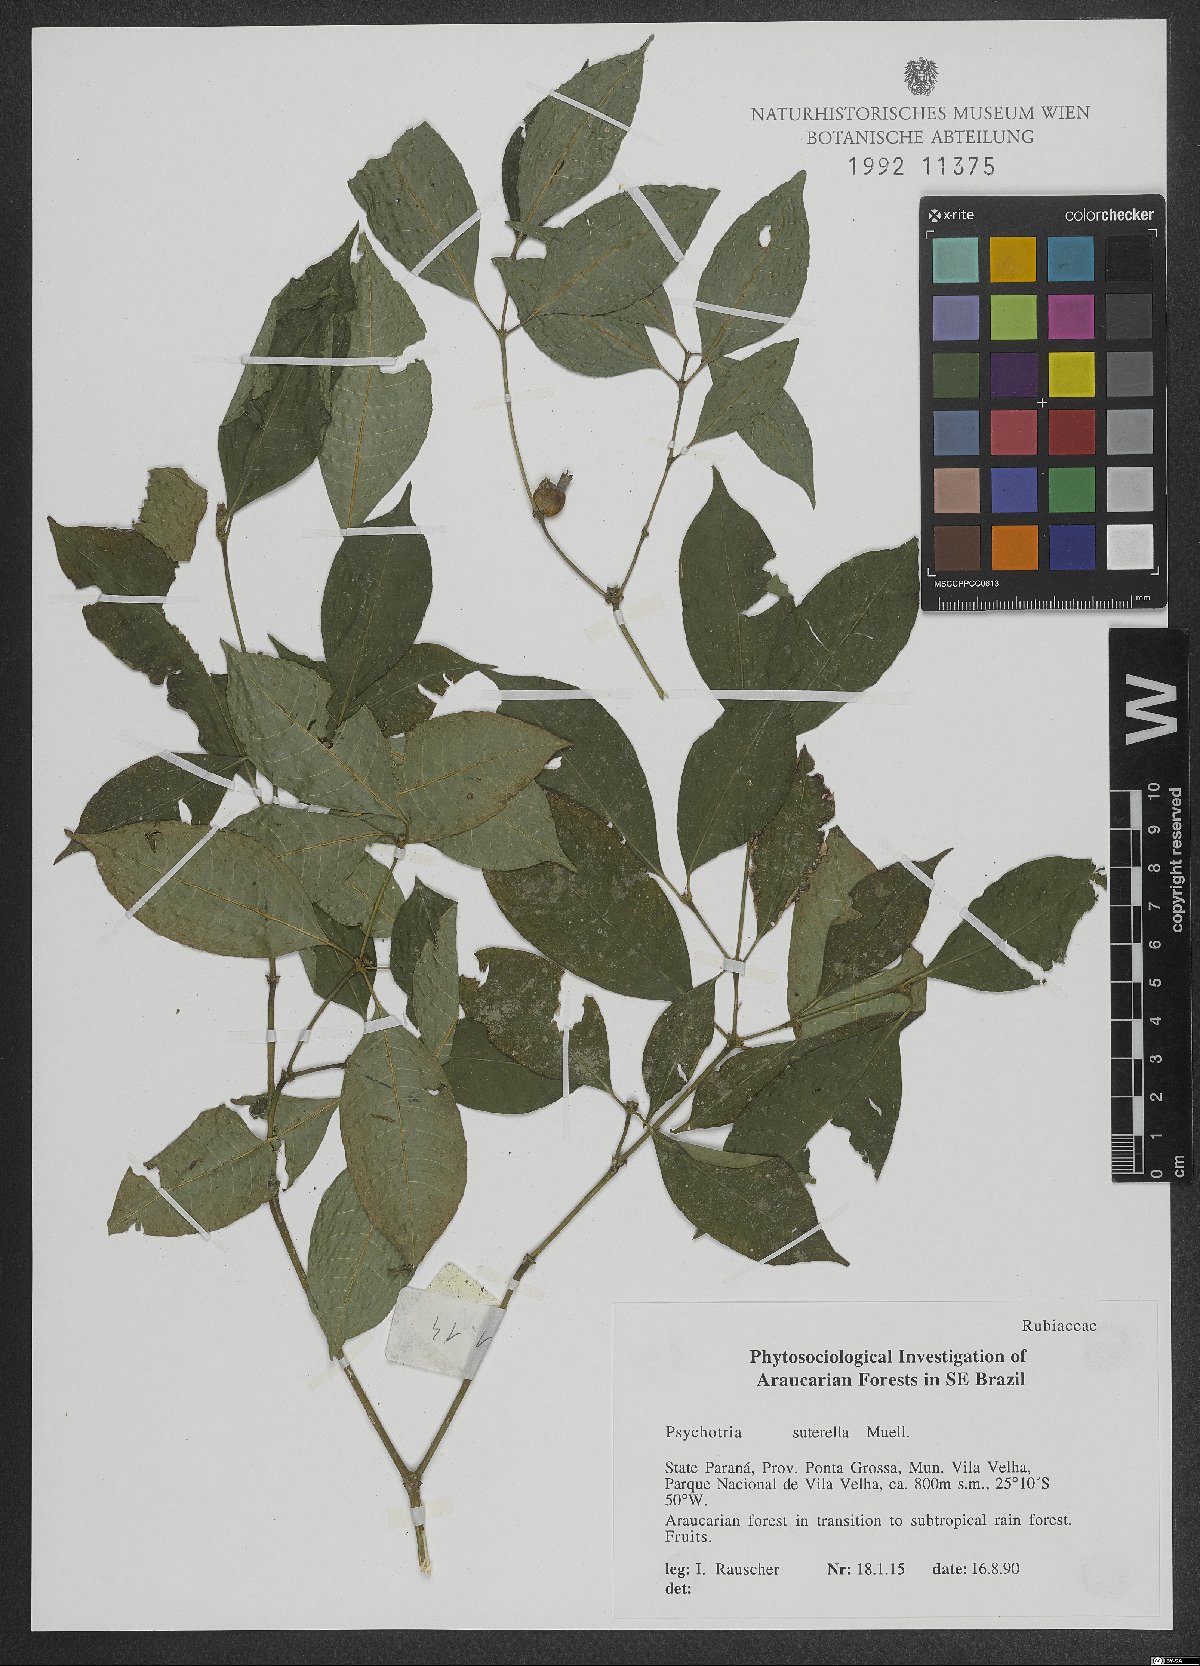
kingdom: Plantae
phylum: Tracheophyta
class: Magnoliopsida
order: Gentianales
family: Rubiaceae
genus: Psychotria
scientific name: Psychotria suterella
